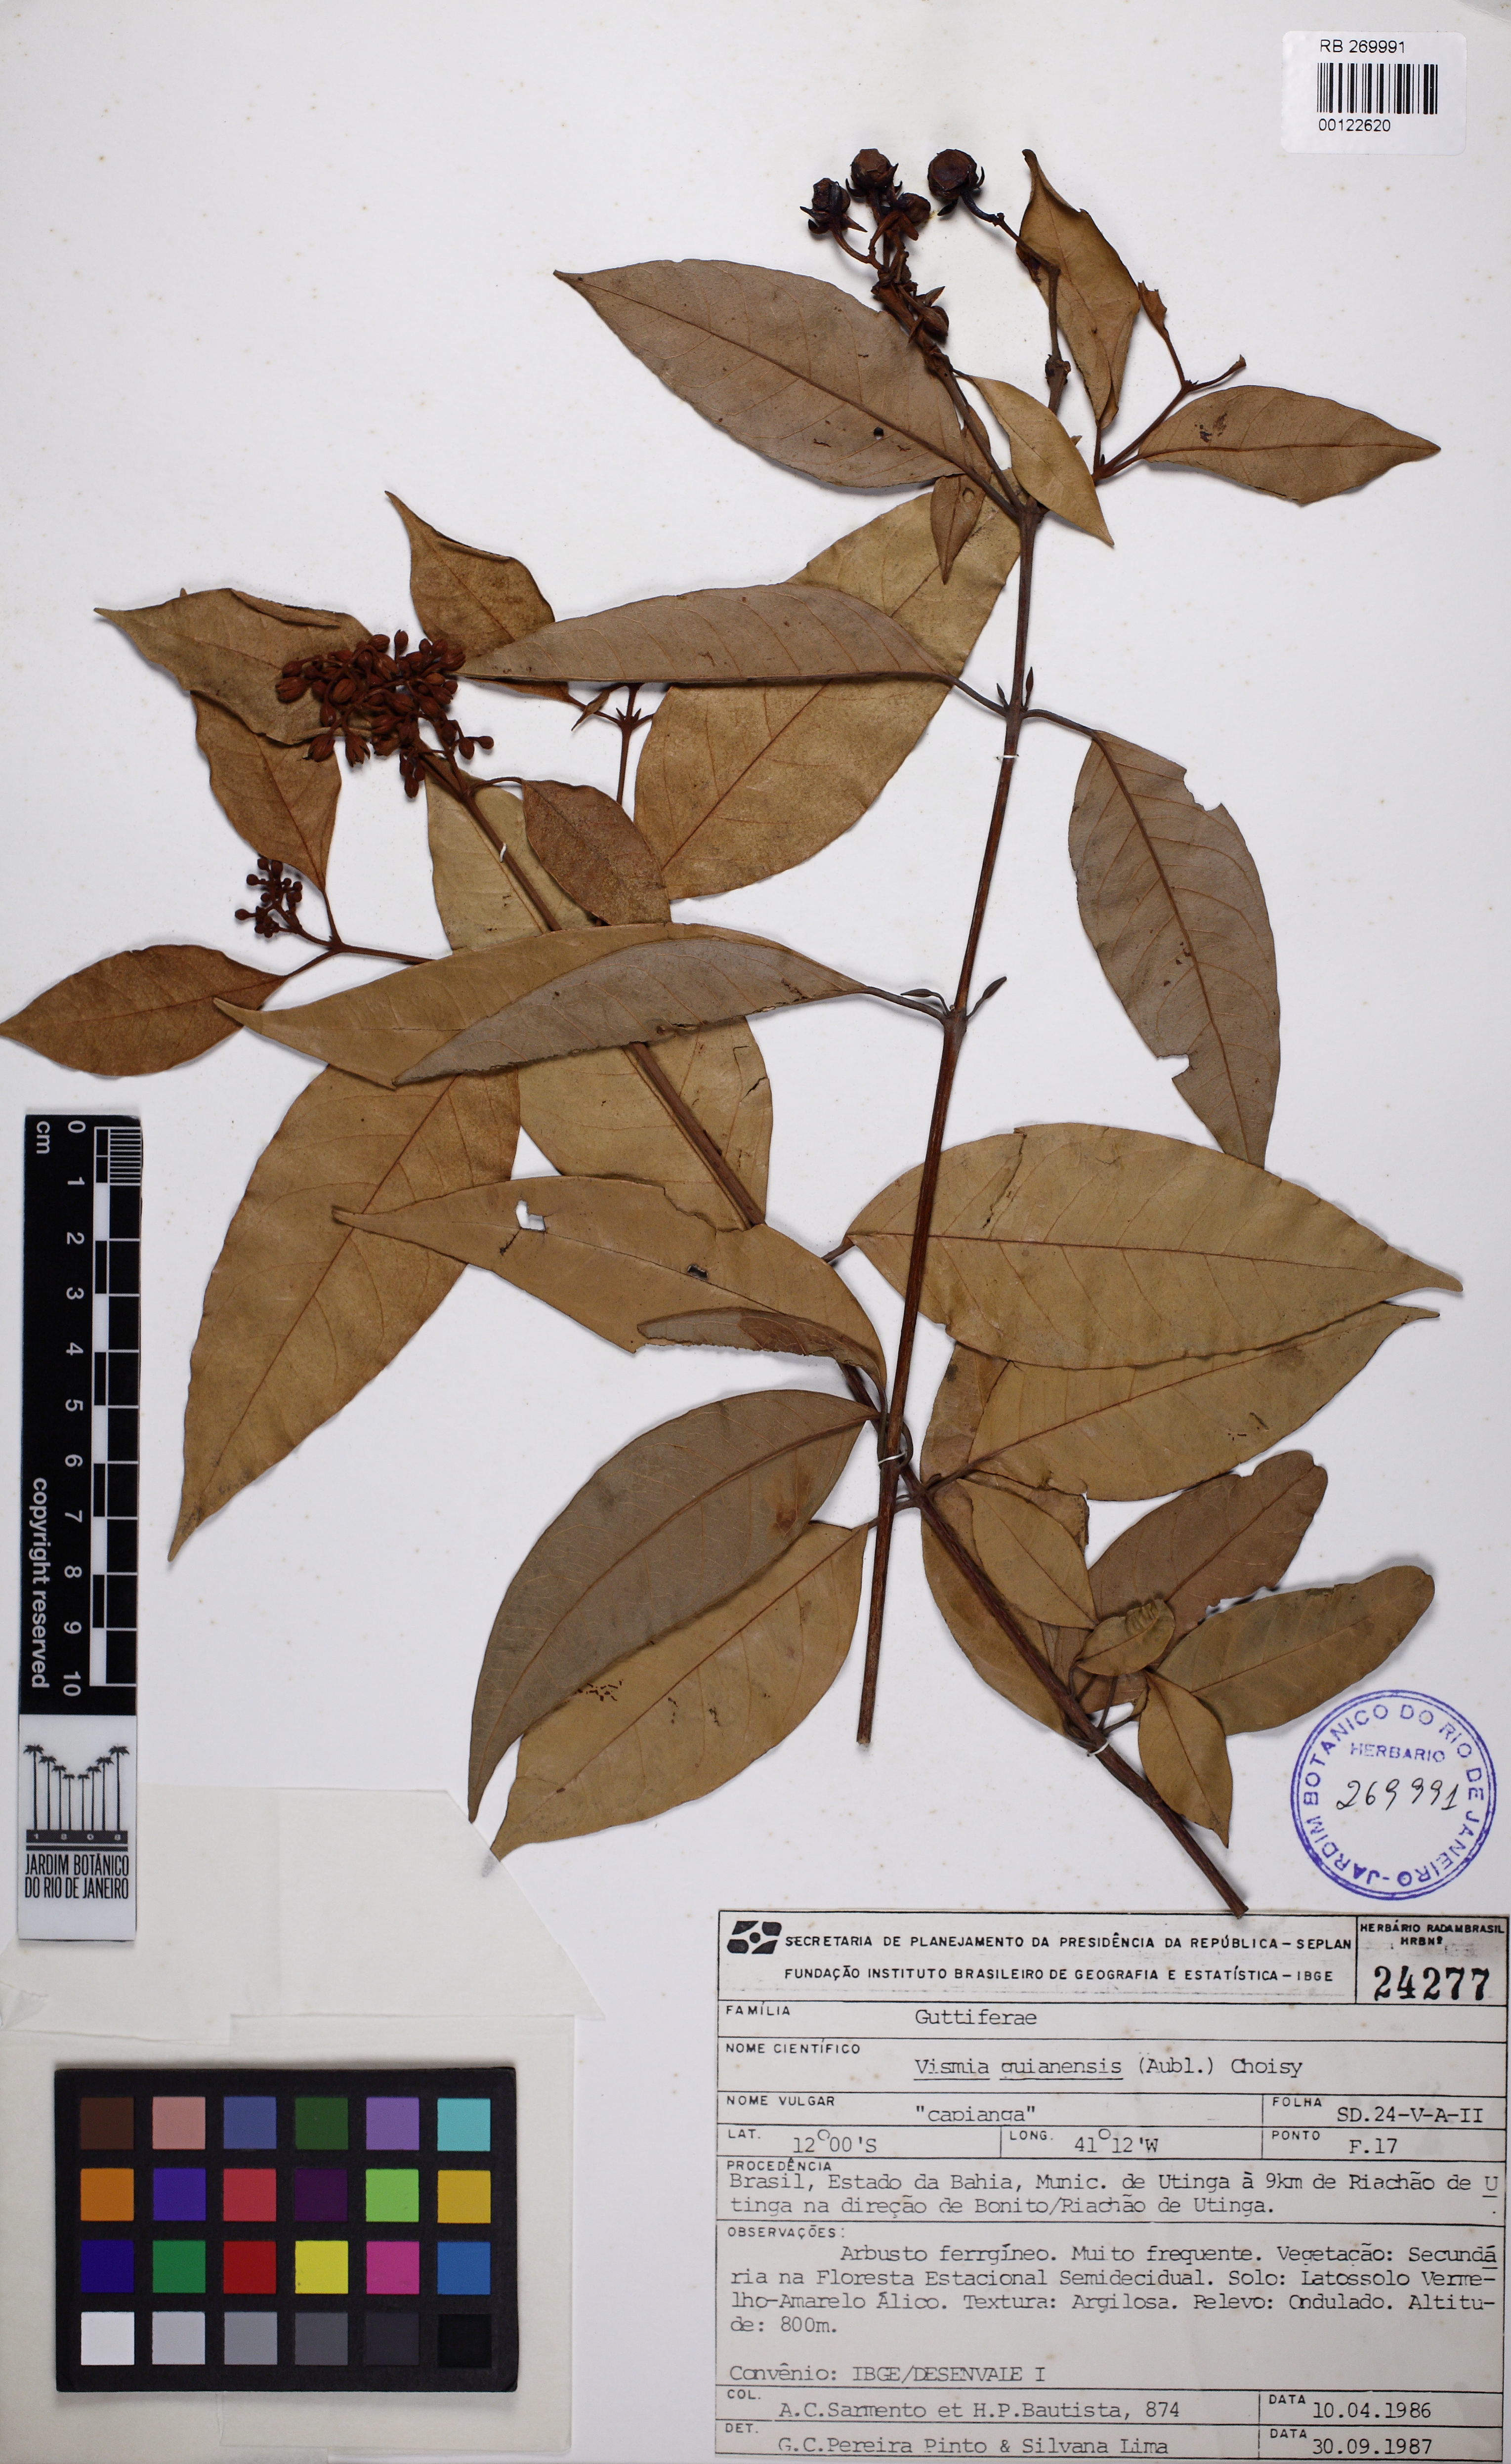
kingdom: Plantae
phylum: Tracheophyta
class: Magnoliopsida
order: Malpighiales
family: Hypericaceae
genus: Vismia
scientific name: Vismia guianensis
